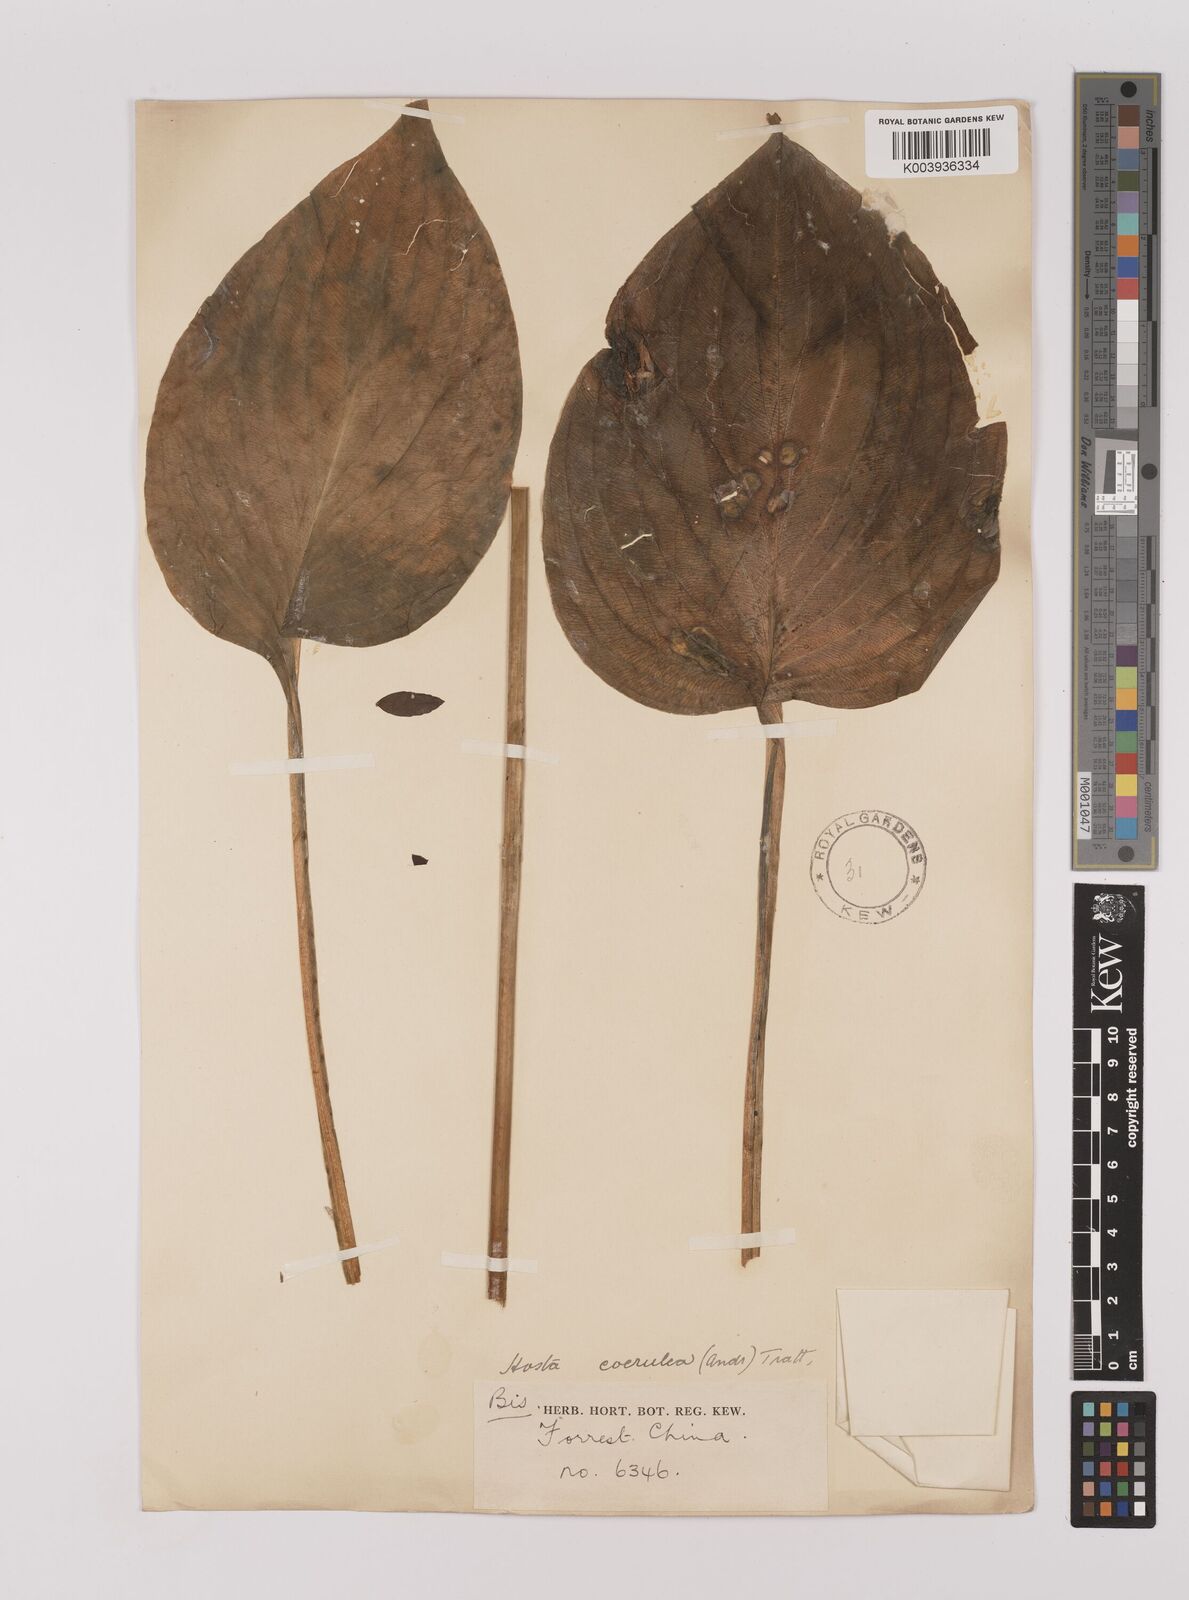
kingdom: Plantae
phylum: Tracheophyta
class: Liliopsida
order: Asparagales
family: Asparagaceae
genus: Hosta
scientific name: Hosta ventricosa
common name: Blue plantain-lily
